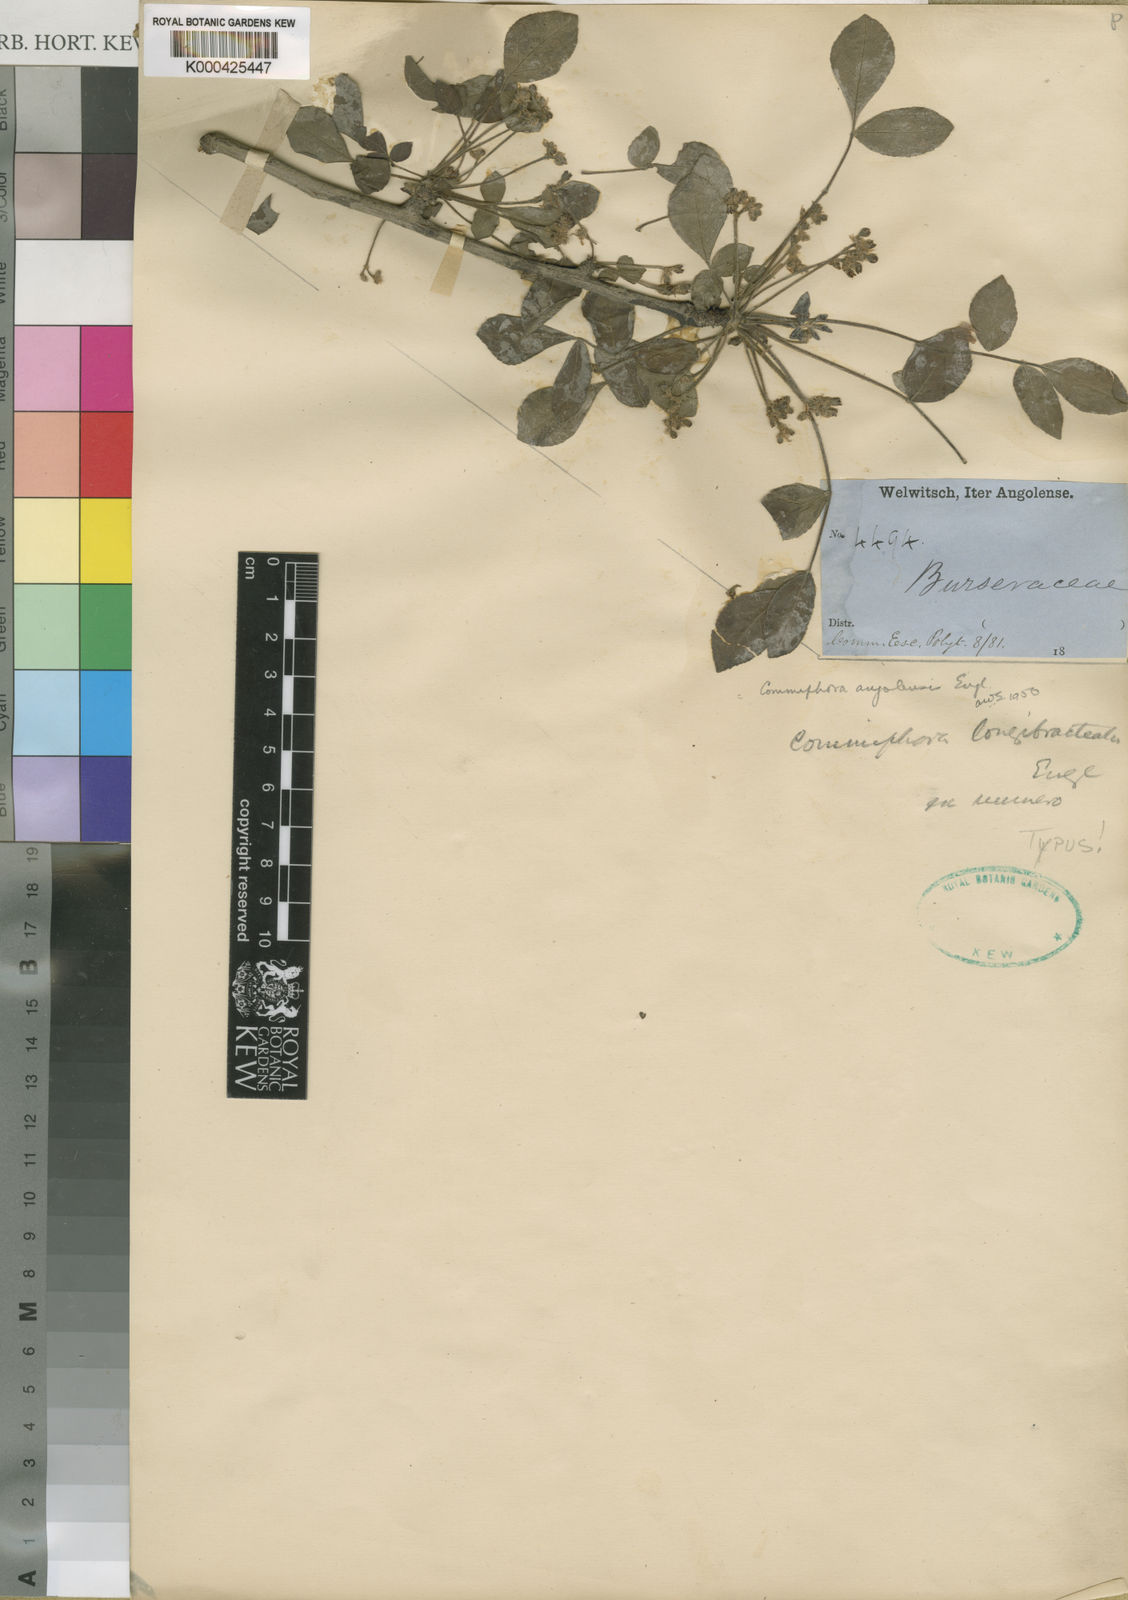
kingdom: Plantae
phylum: Tracheophyta
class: Magnoliopsida
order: Sapindales
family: Burseraceae
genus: Commiphora
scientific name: Commiphora angolensis
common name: Poison-grub
